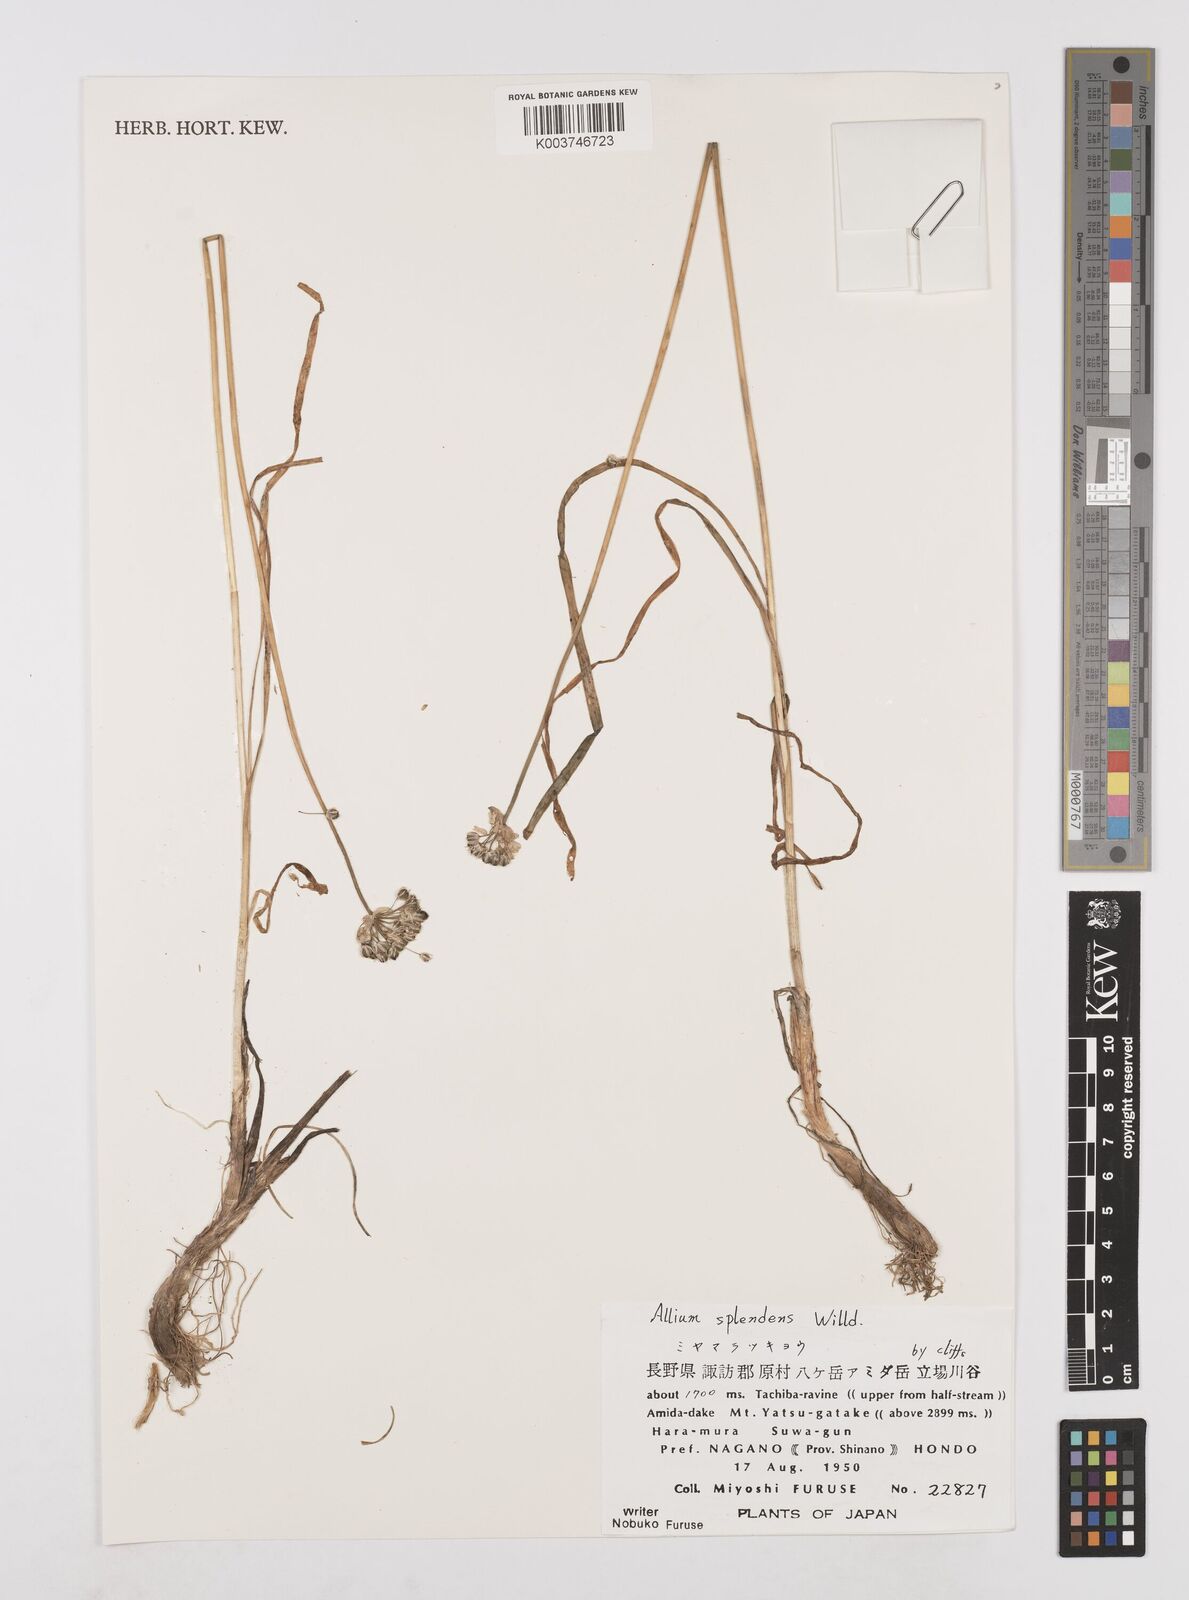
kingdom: Plantae
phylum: Tracheophyta
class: Liliopsida
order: Asparagales
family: Amaryllidaceae
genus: Allium
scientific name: Allium splendens
